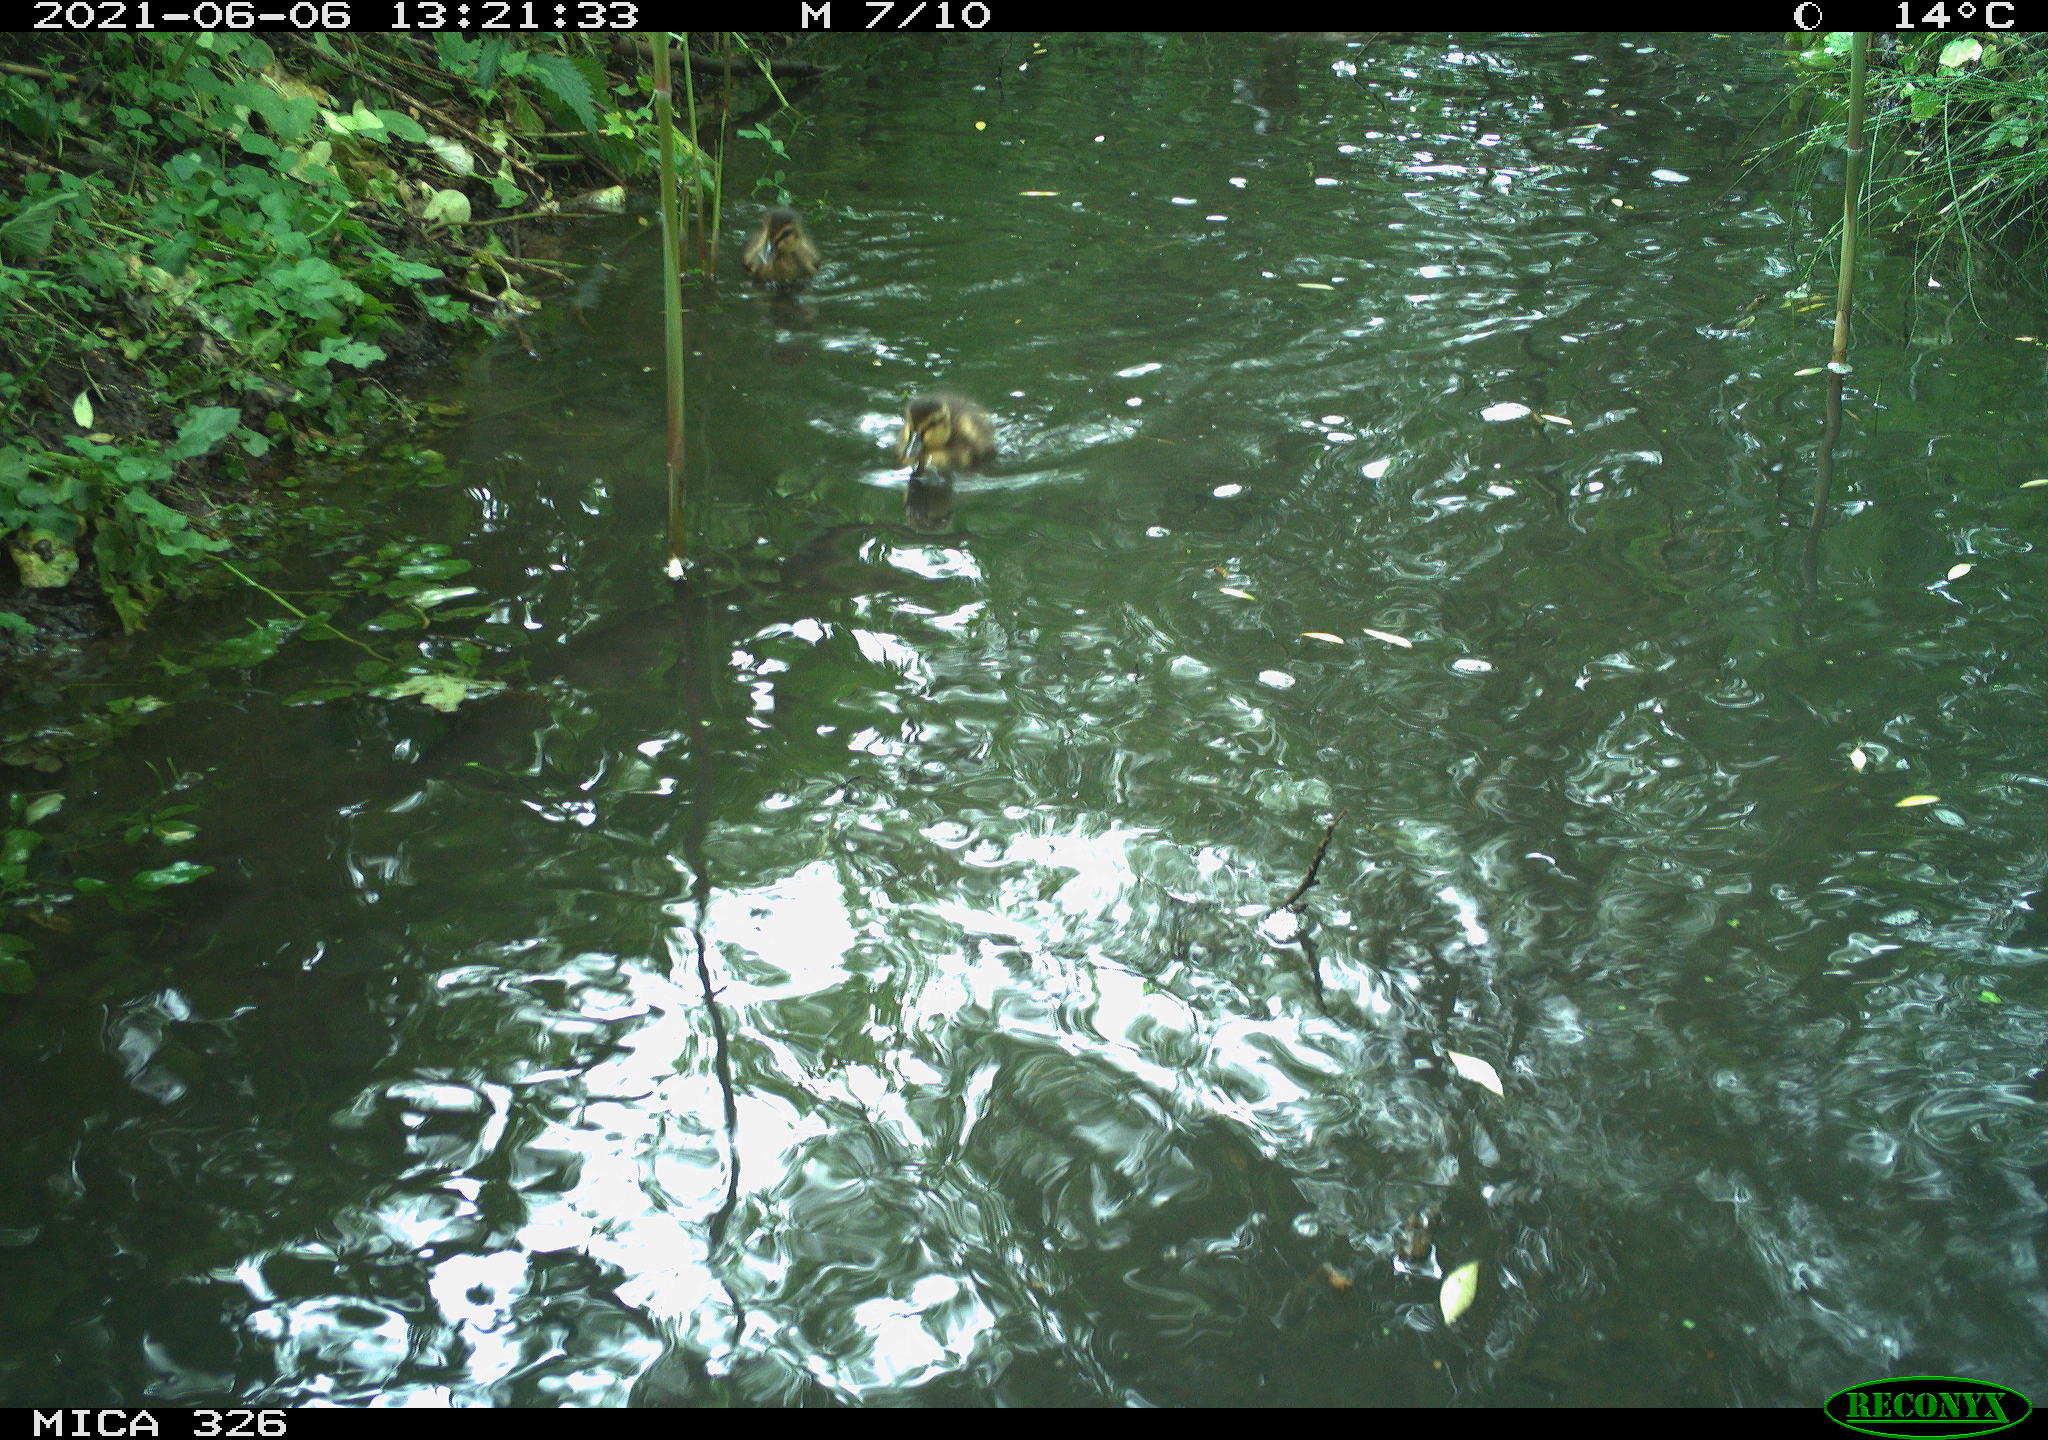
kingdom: Animalia
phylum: Chordata
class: Aves
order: Anseriformes
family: Anatidae
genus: Anas
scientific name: Anas platyrhynchos
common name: Mallard
